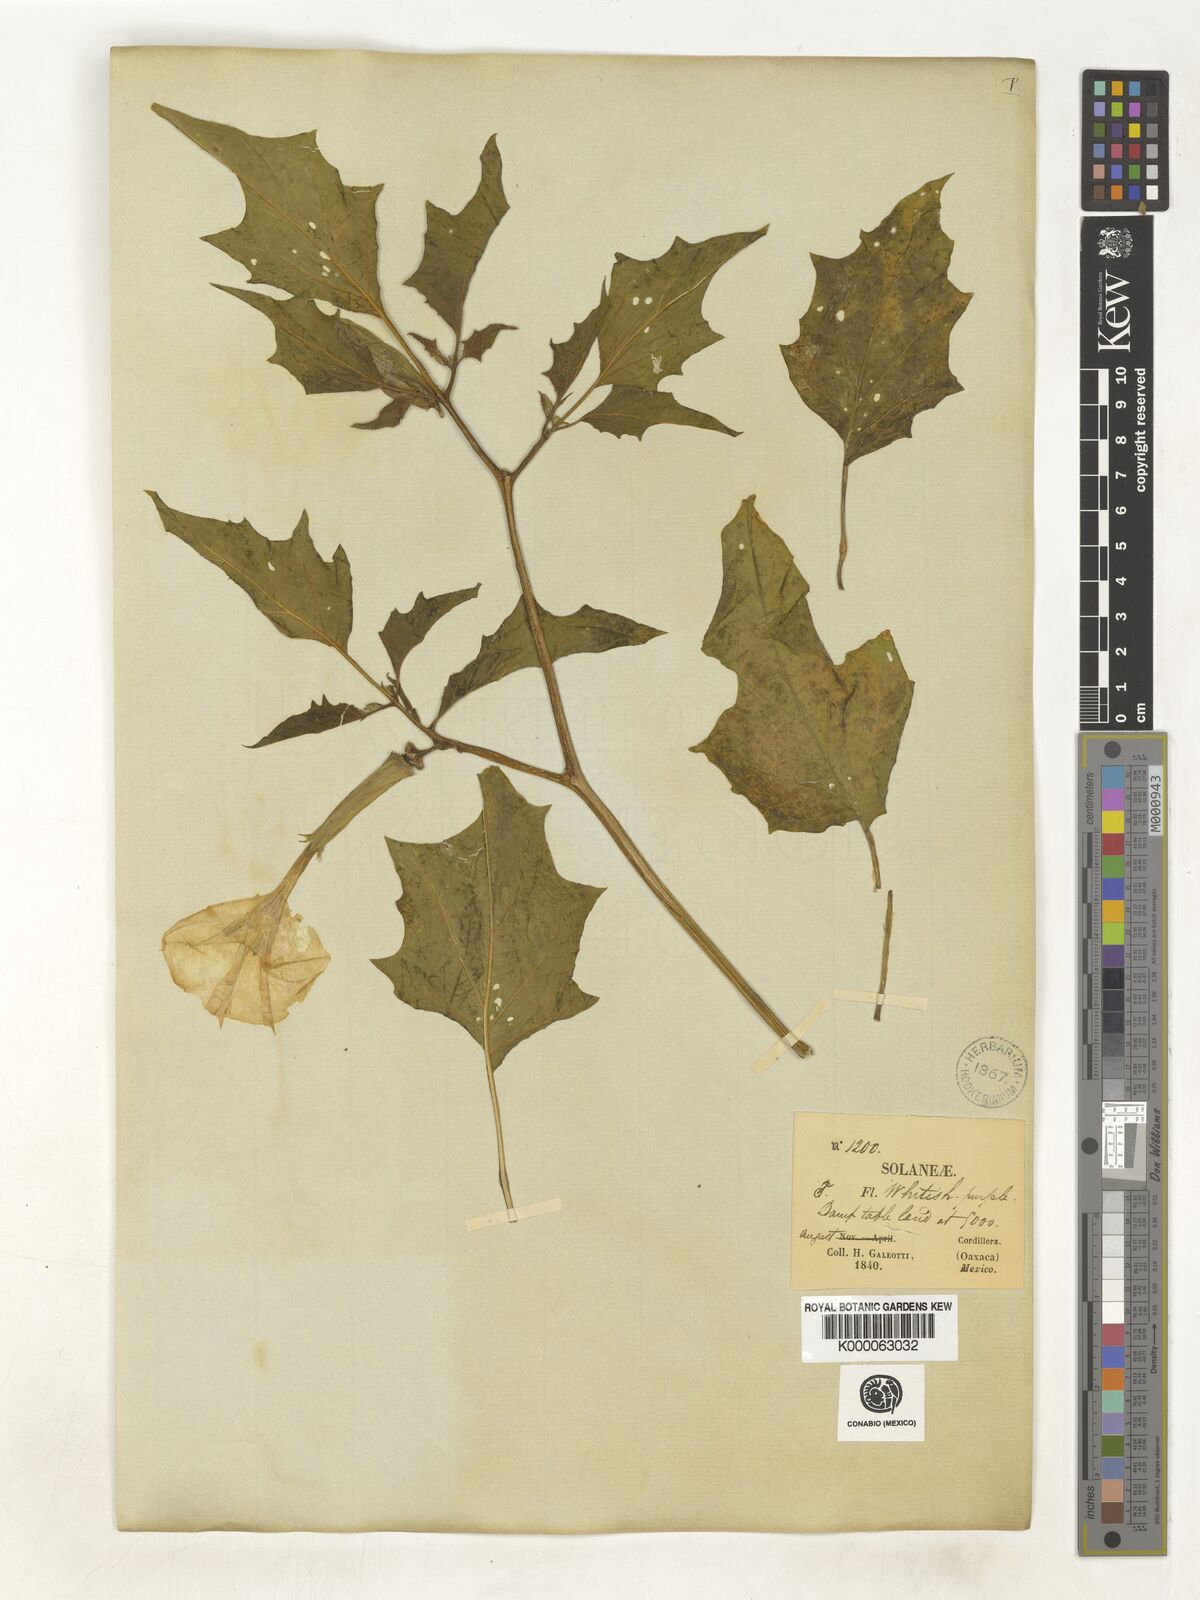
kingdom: Plantae
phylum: Tracheophyta
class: Magnoliopsida
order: Solanales
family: Solanaceae
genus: Datura
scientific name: Datura stramonium
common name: Thorn-apple
